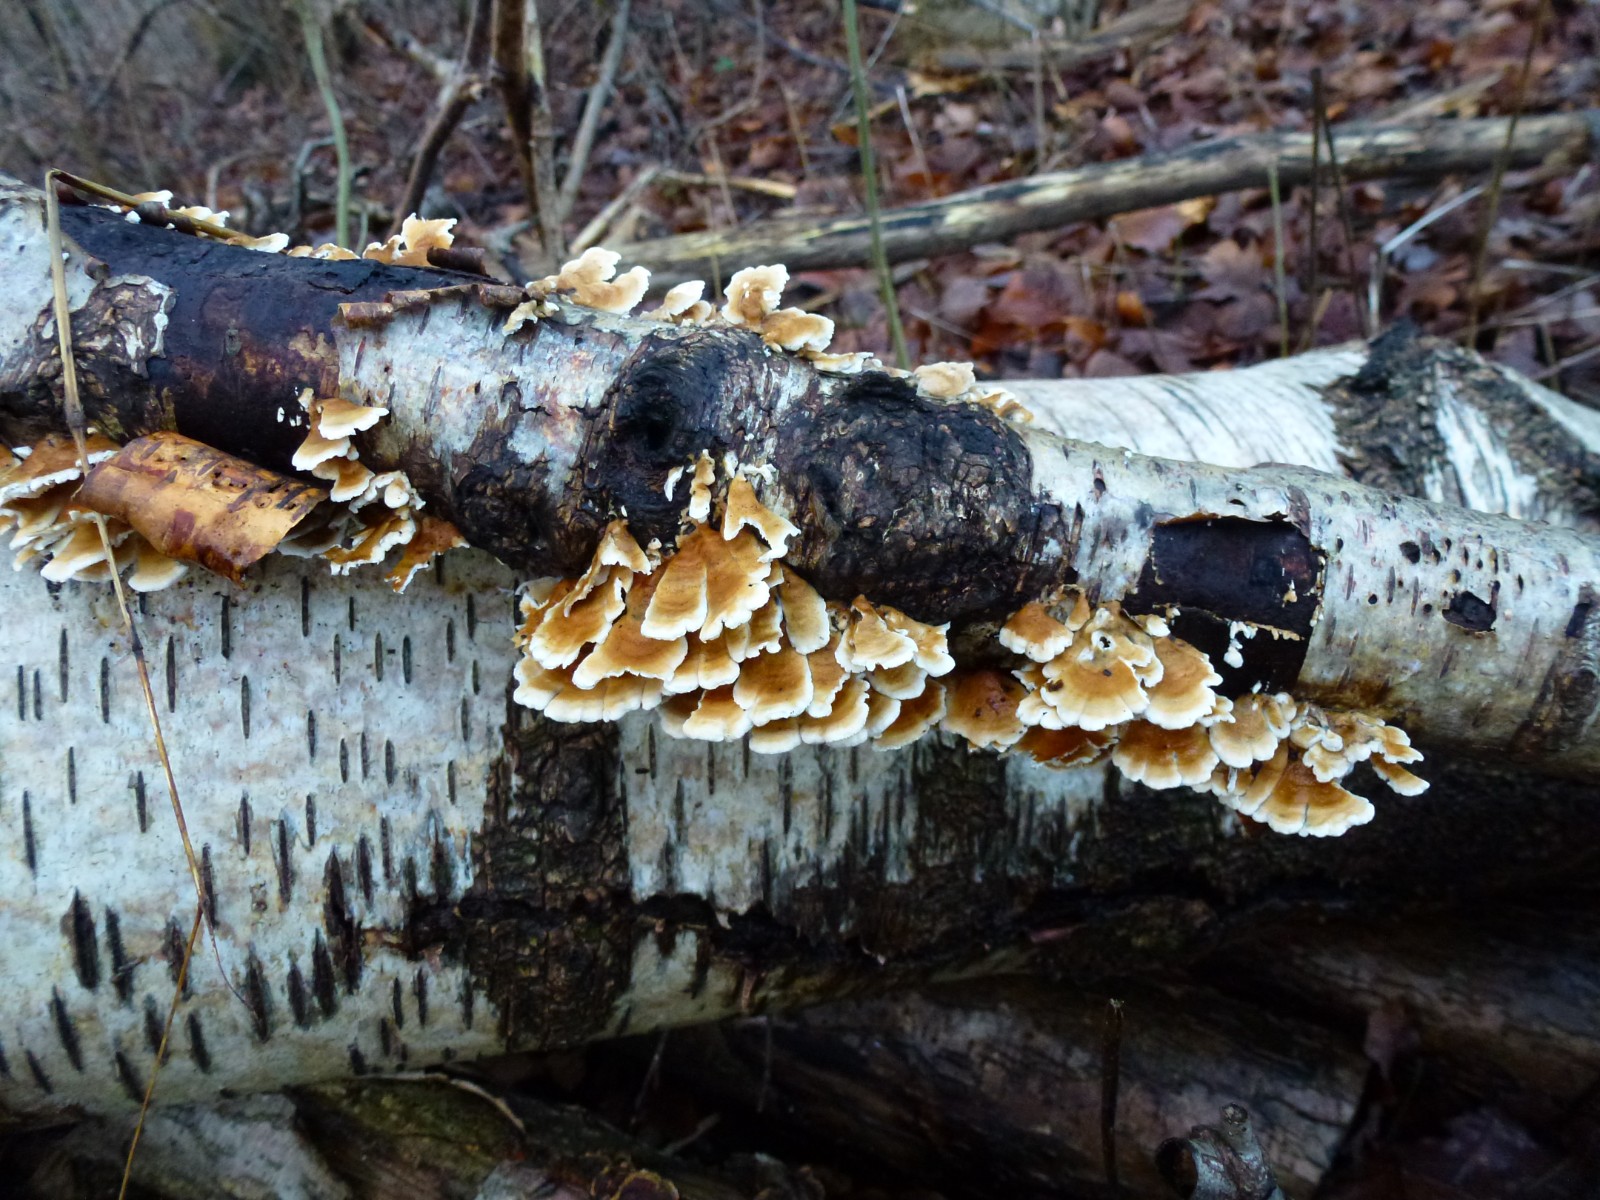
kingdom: Fungi
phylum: Basidiomycota
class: Agaricomycetes
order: Amylocorticiales
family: Amylocorticiaceae
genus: Plicaturopsis
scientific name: Plicaturopsis crispa
